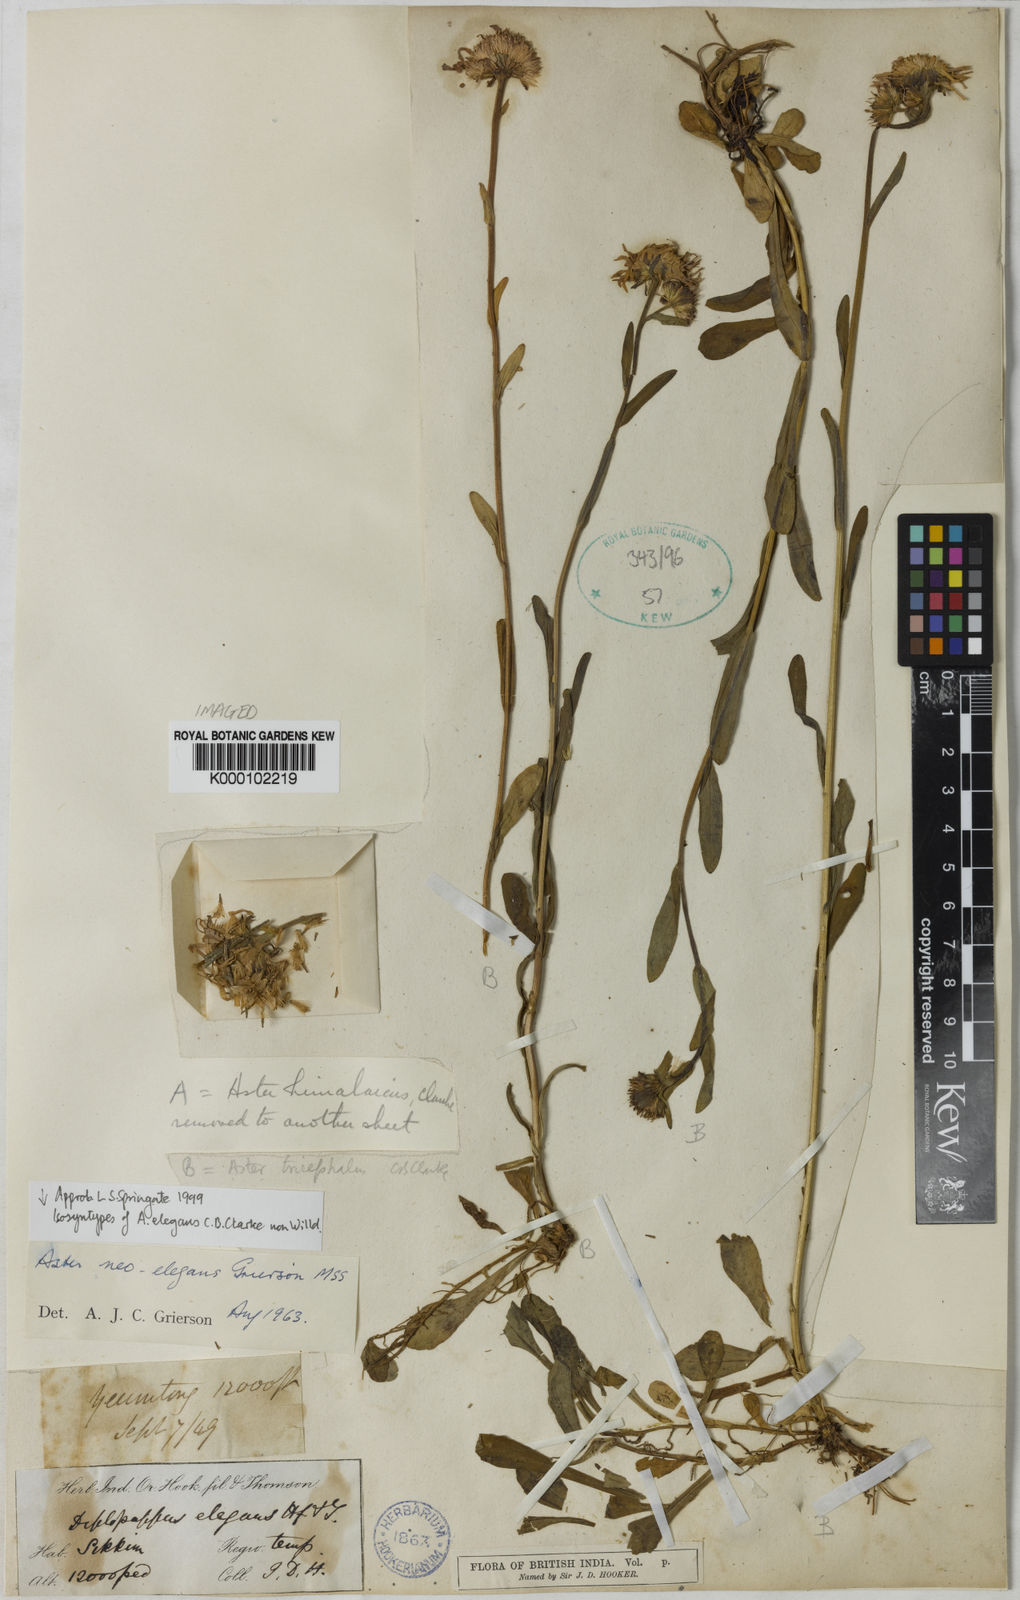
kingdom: Plantae
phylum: Tracheophyta
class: Magnoliopsida
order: Asterales
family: Asteraceae
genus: Aster
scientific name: Aster neoelegans
